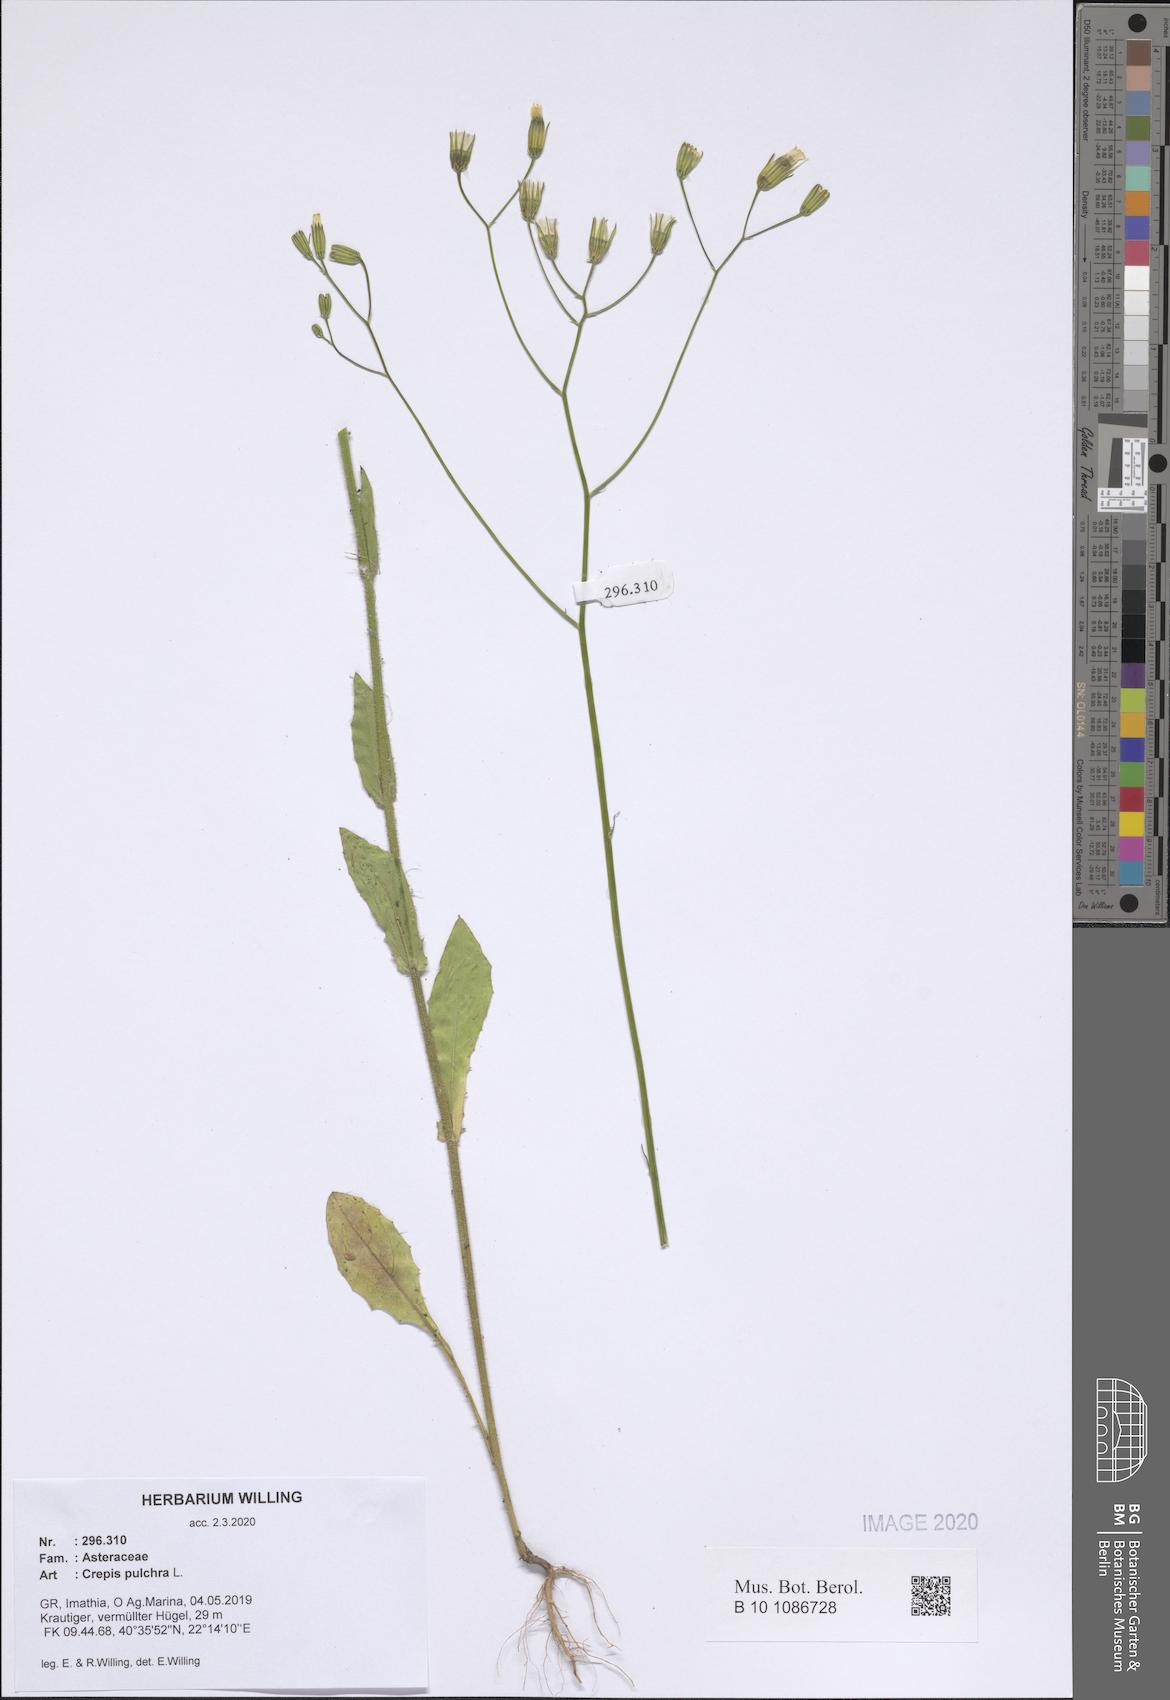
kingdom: Plantae
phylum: Tracheophyta
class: Magnoliopsida
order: Asterales
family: Asteraceae
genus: Crepis
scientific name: Crepis pulchra
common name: Hawk's-beard
